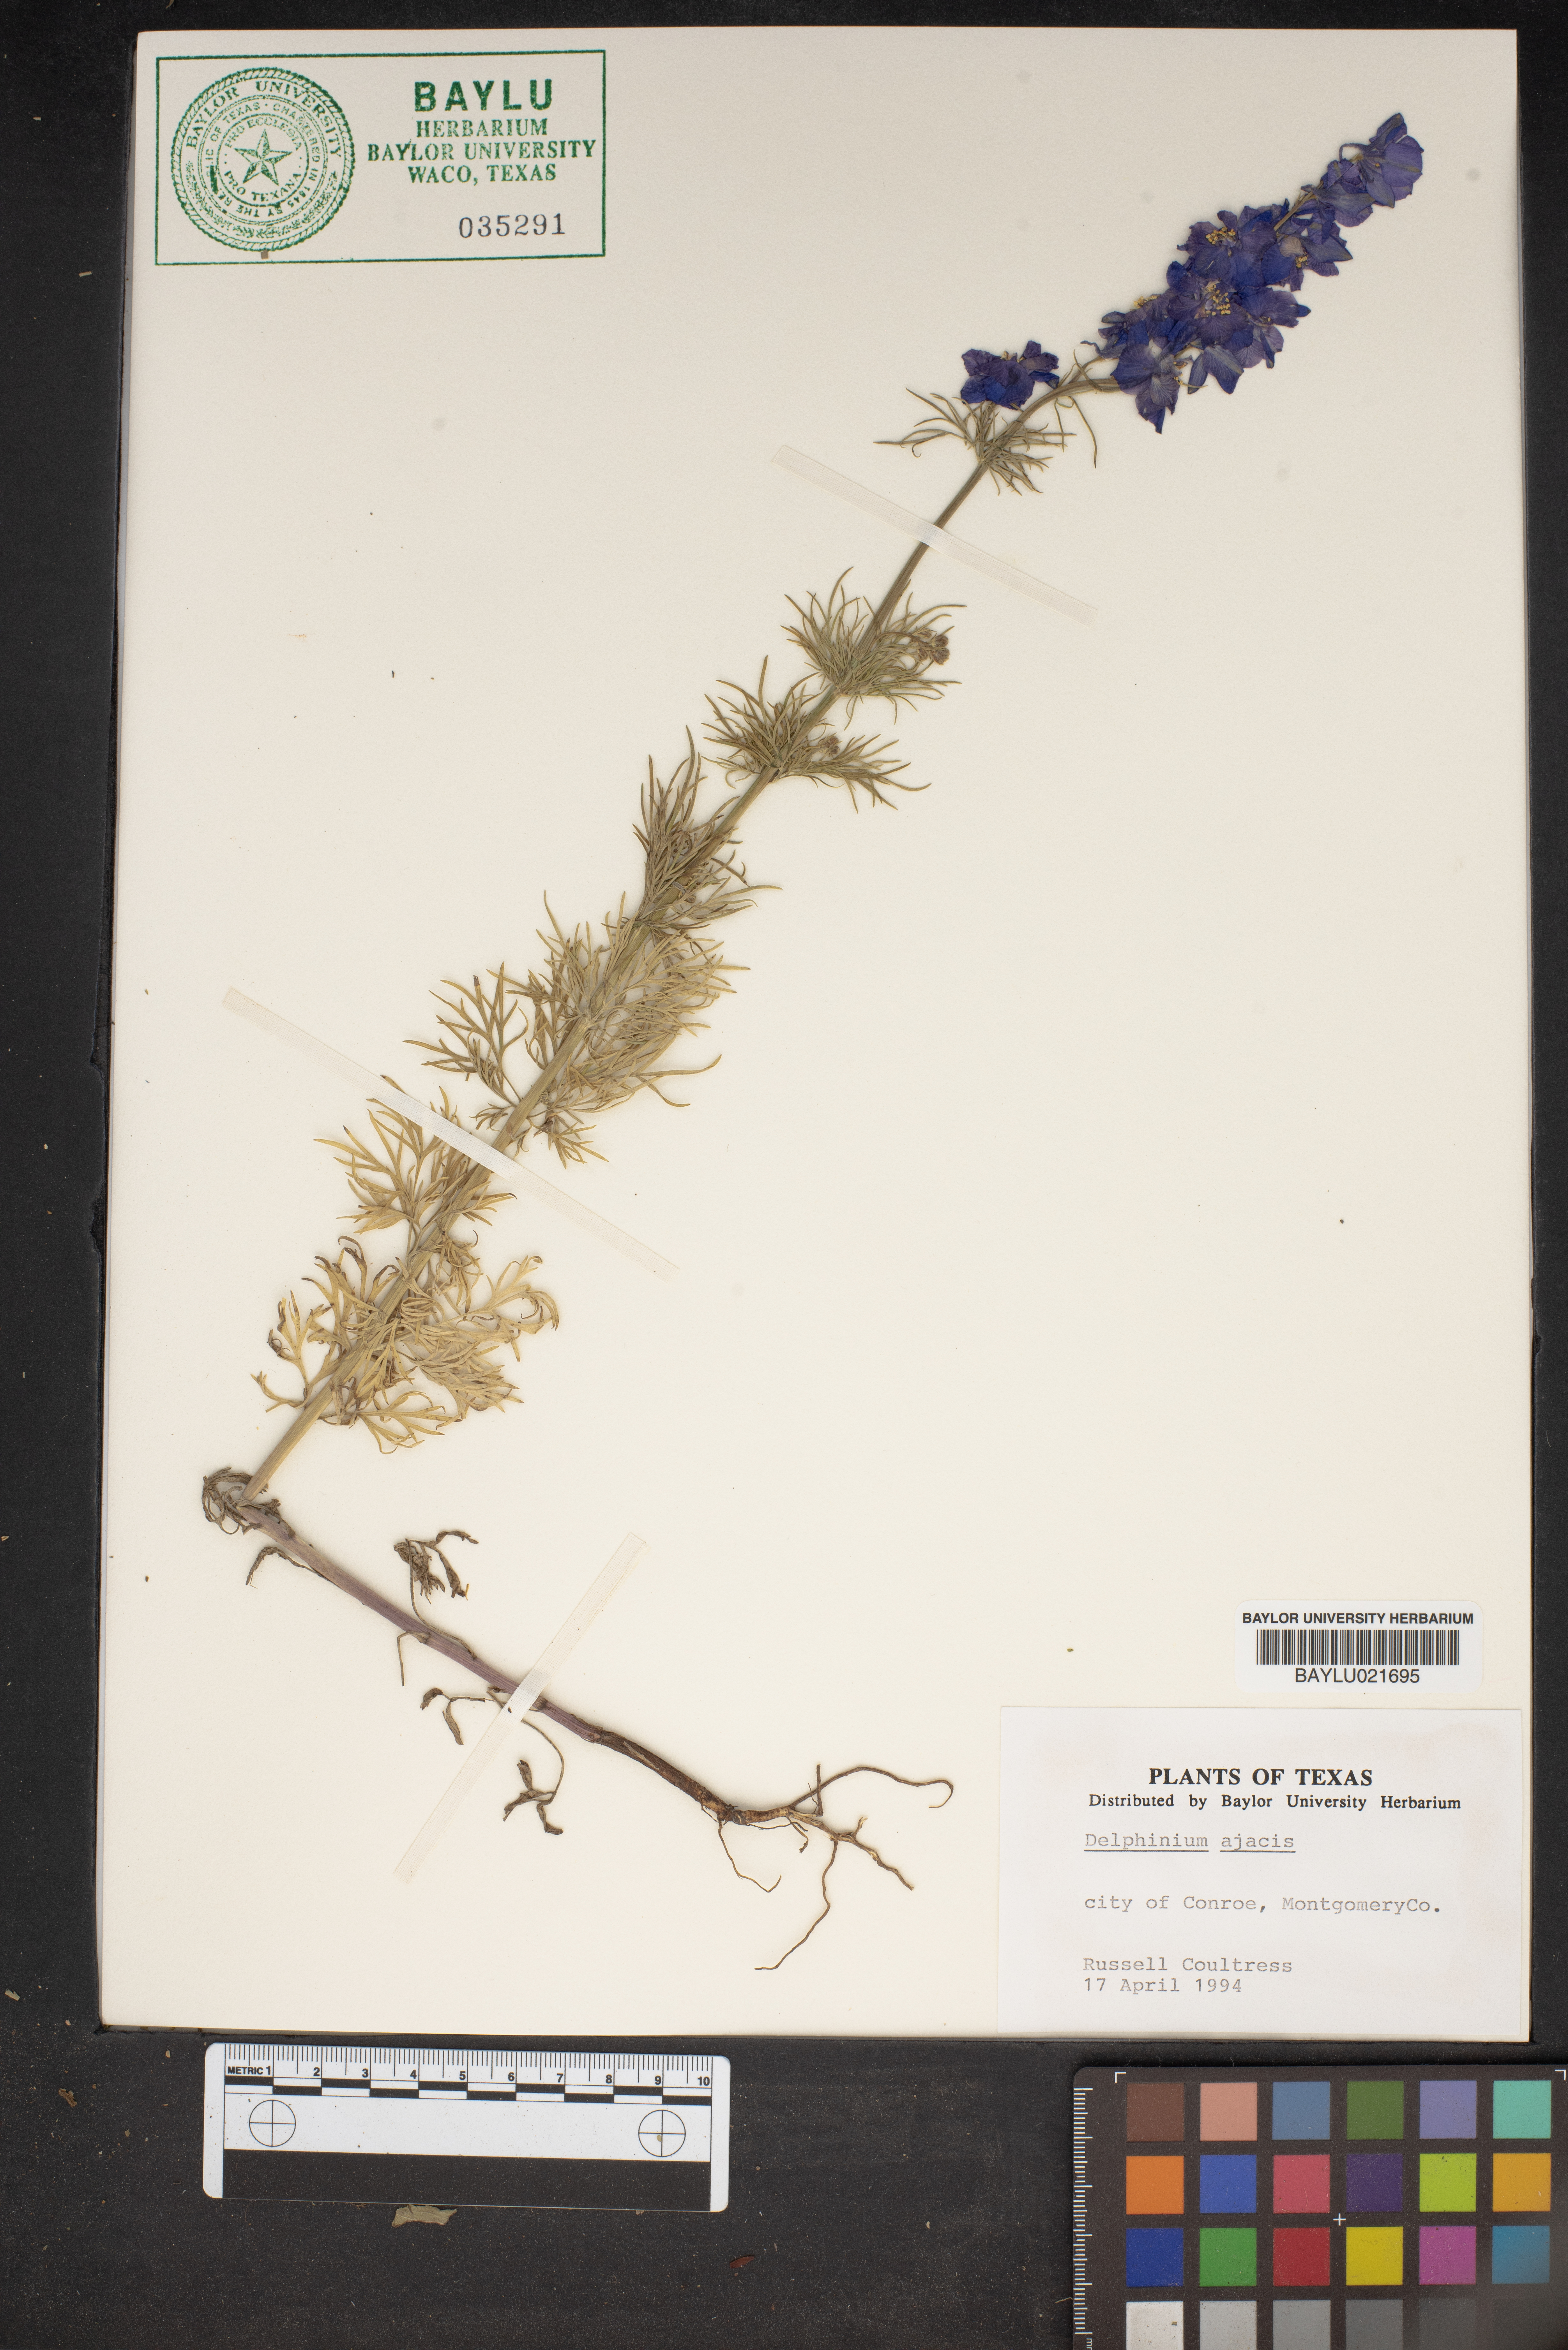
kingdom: Plantae
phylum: Tracheophyta
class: Magnoliopsida
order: Ranunculales
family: Ranunculaceae
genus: Delphinium
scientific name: Delphinium ajacis
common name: Doubtful knight's-spur
